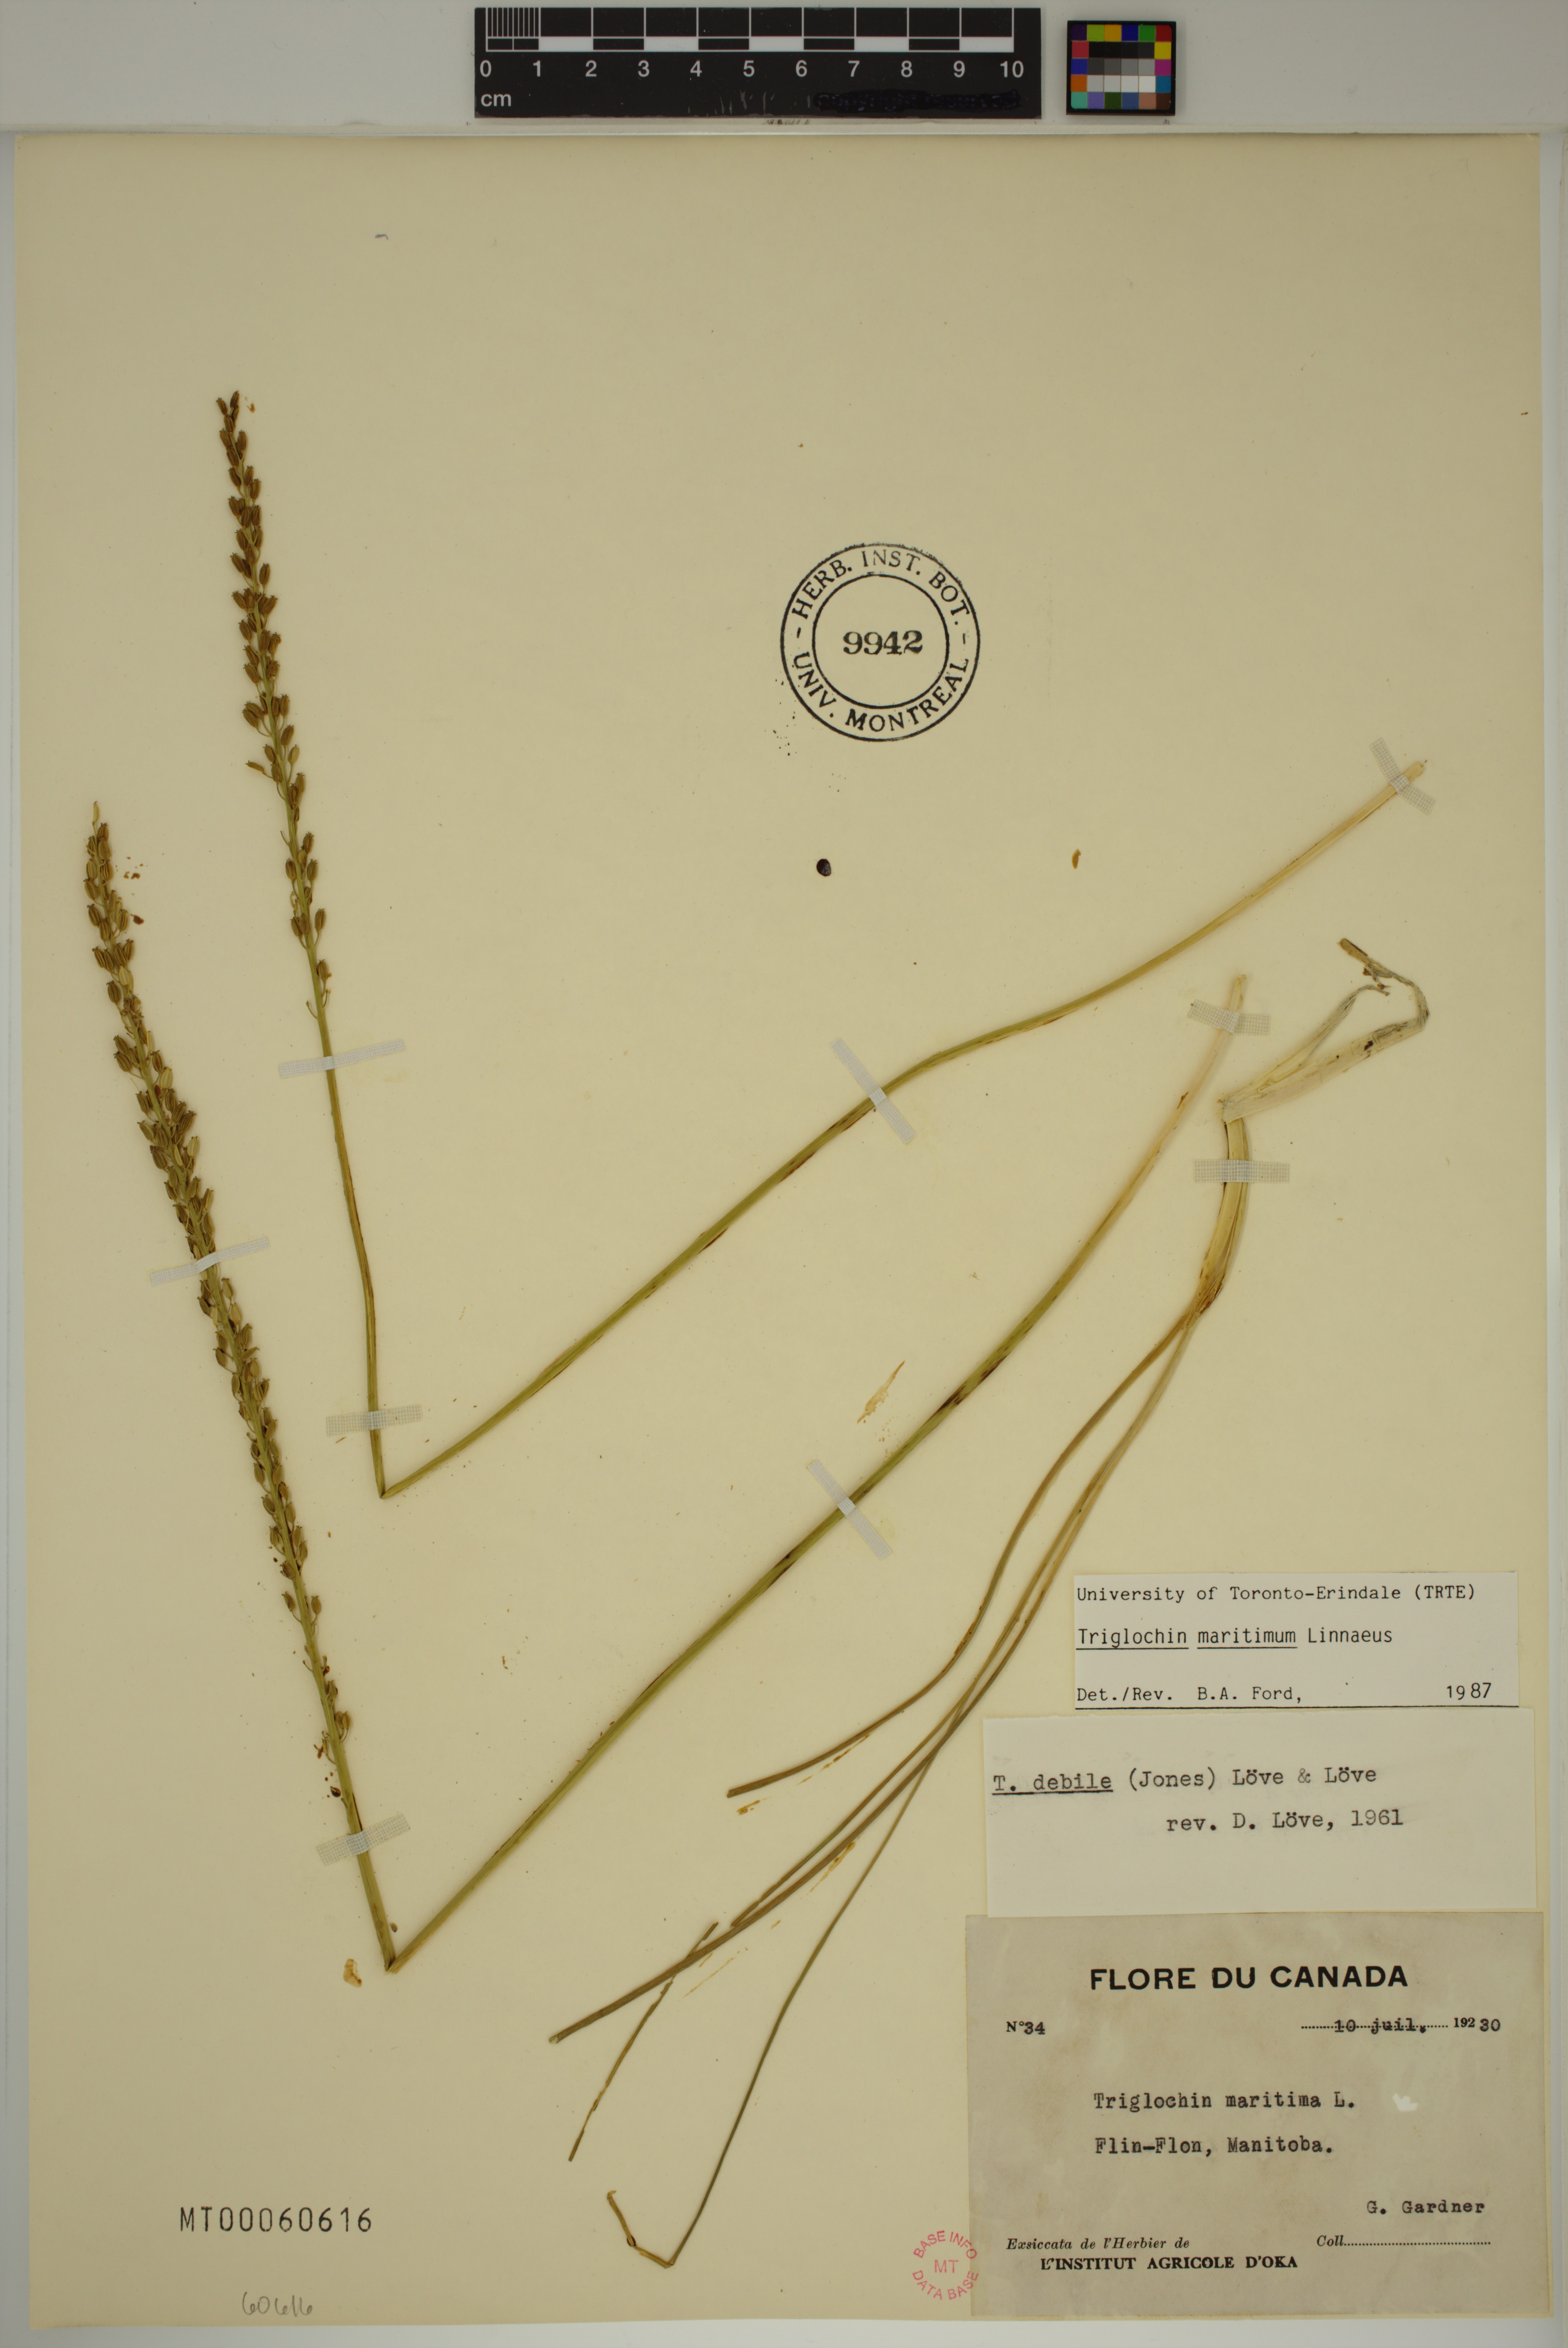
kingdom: Plantae
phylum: Tracheophyta
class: Liliopsida
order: Alismatales
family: Juncaginaceae
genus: Triglochin
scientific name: Triglochin maritima
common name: Sea arrowgrass
